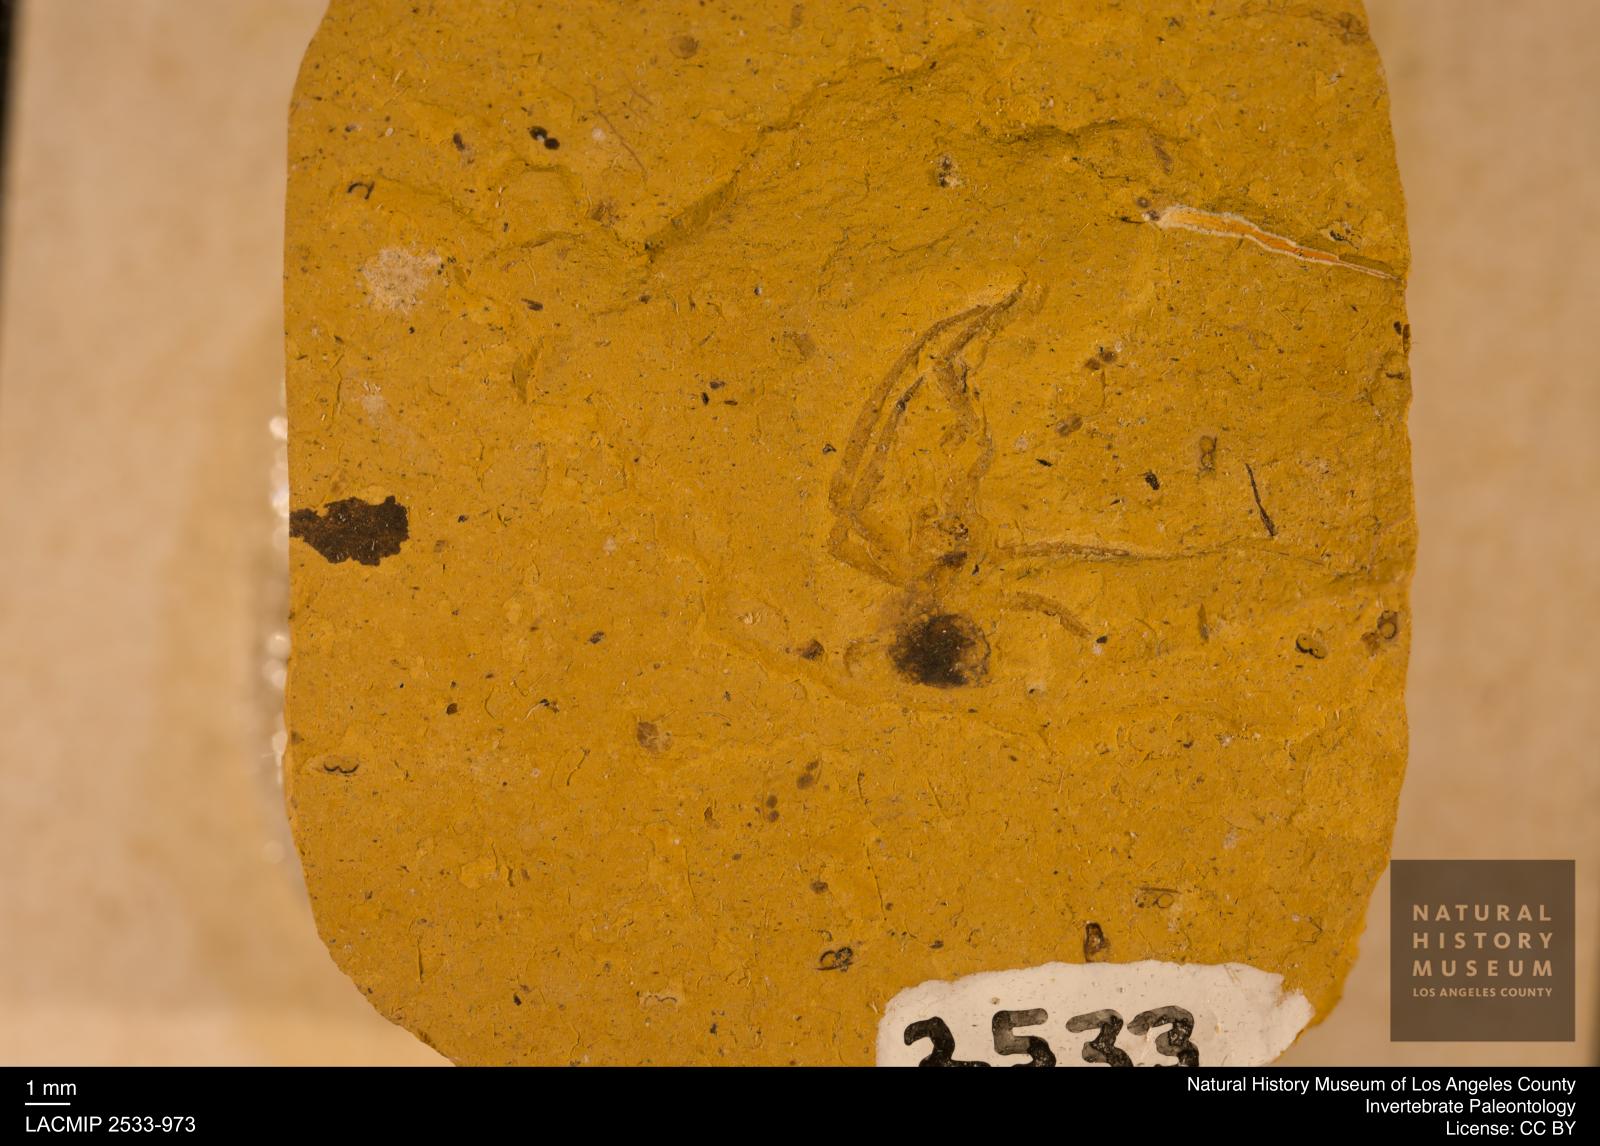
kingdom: Animalia
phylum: Arthropoda
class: Arachnida
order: Araneae
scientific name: Araneae
